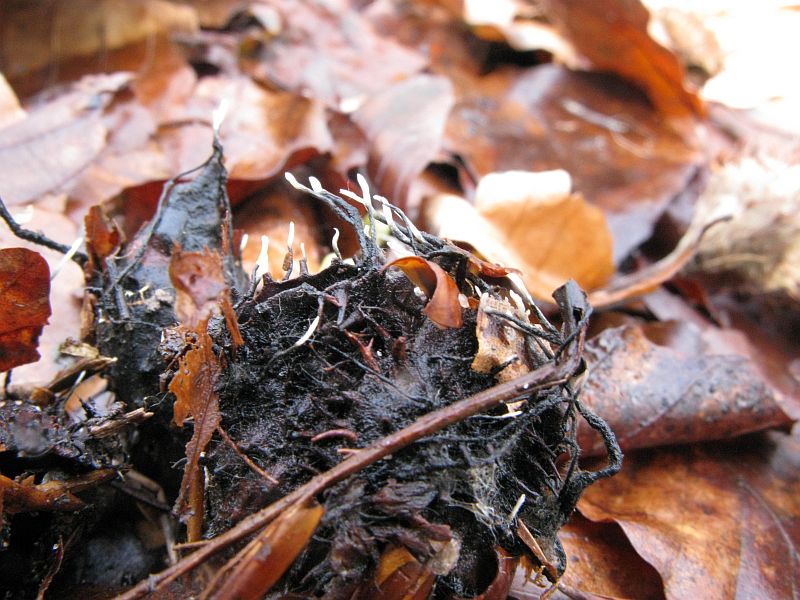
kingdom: Fungi
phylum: Ascomycota
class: Sordariomycetes
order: Xylariales
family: Xylariaceae
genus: Xylaria
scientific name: Xylaria carpophila
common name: bogskål-stødsvamp
